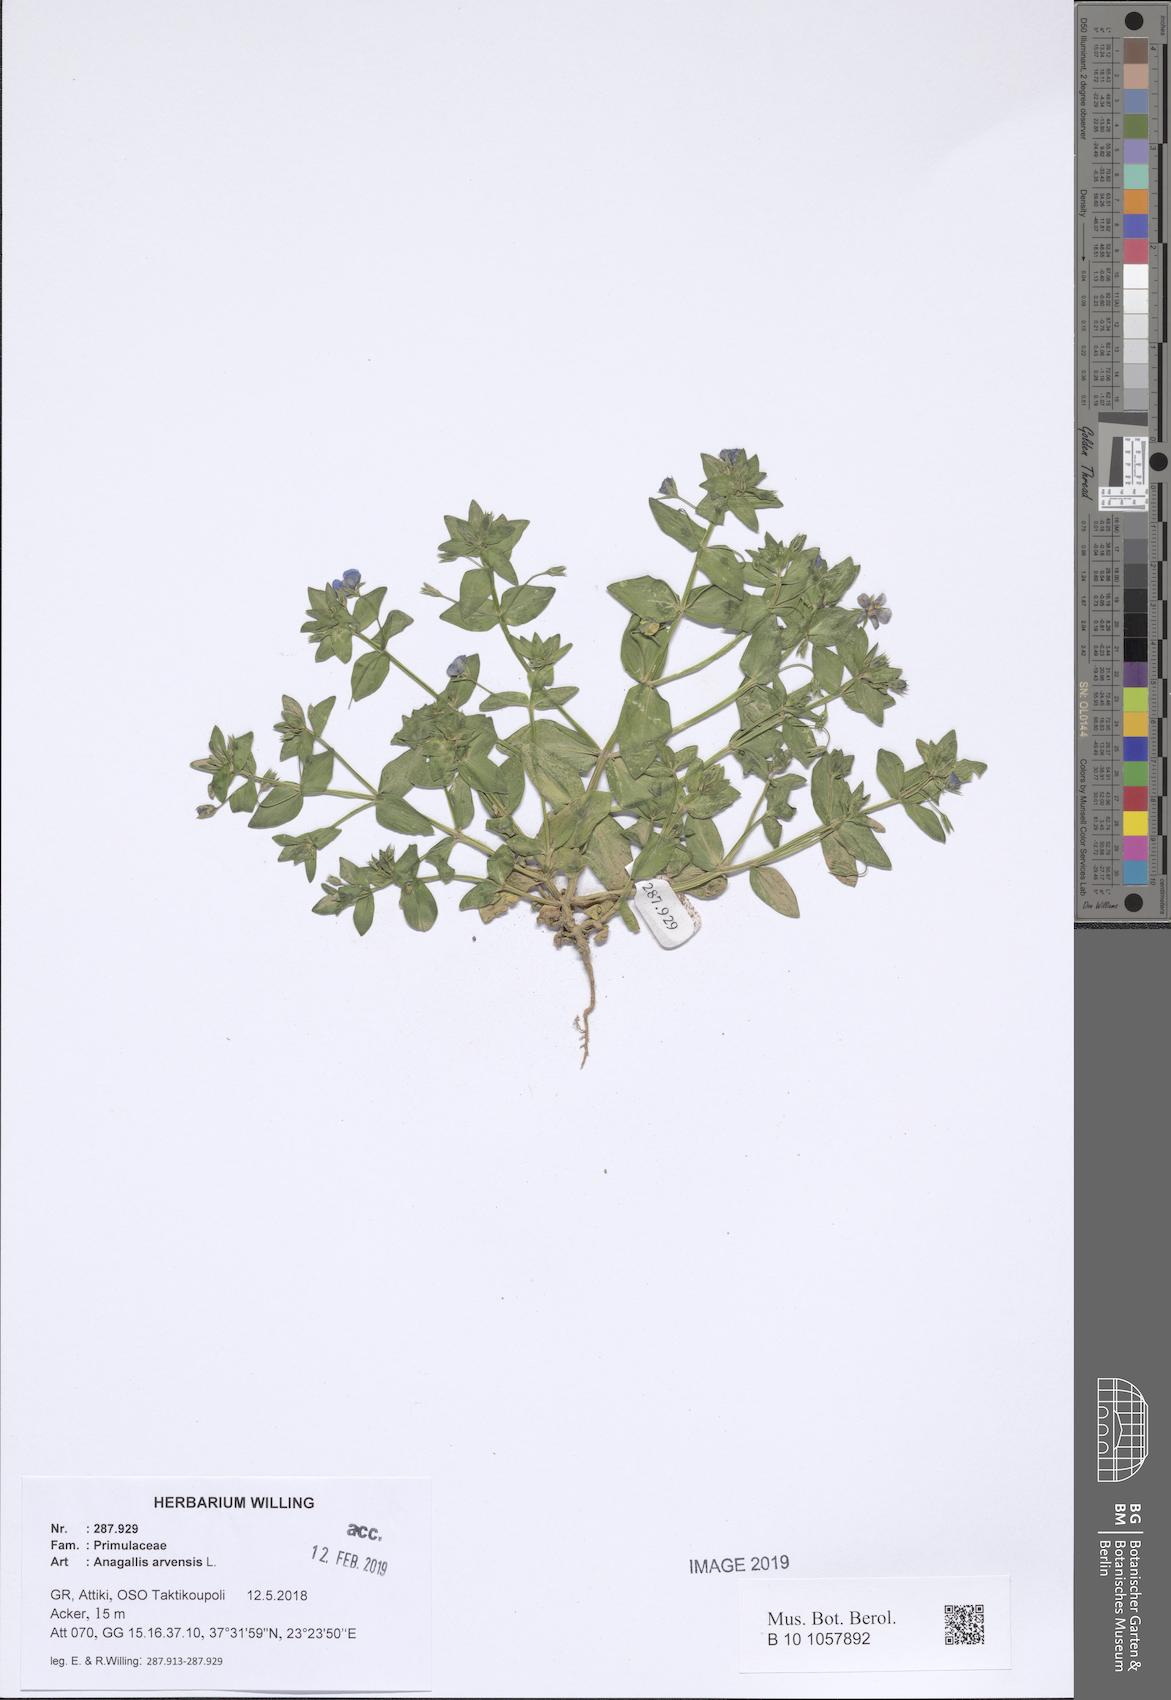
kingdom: Plantae
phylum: Tracheophyta
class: Magnoliopsida
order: Ericales
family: Primulaceae
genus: Lysimachia
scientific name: Lysimachia arvensis
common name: Scarlet pimpernel
